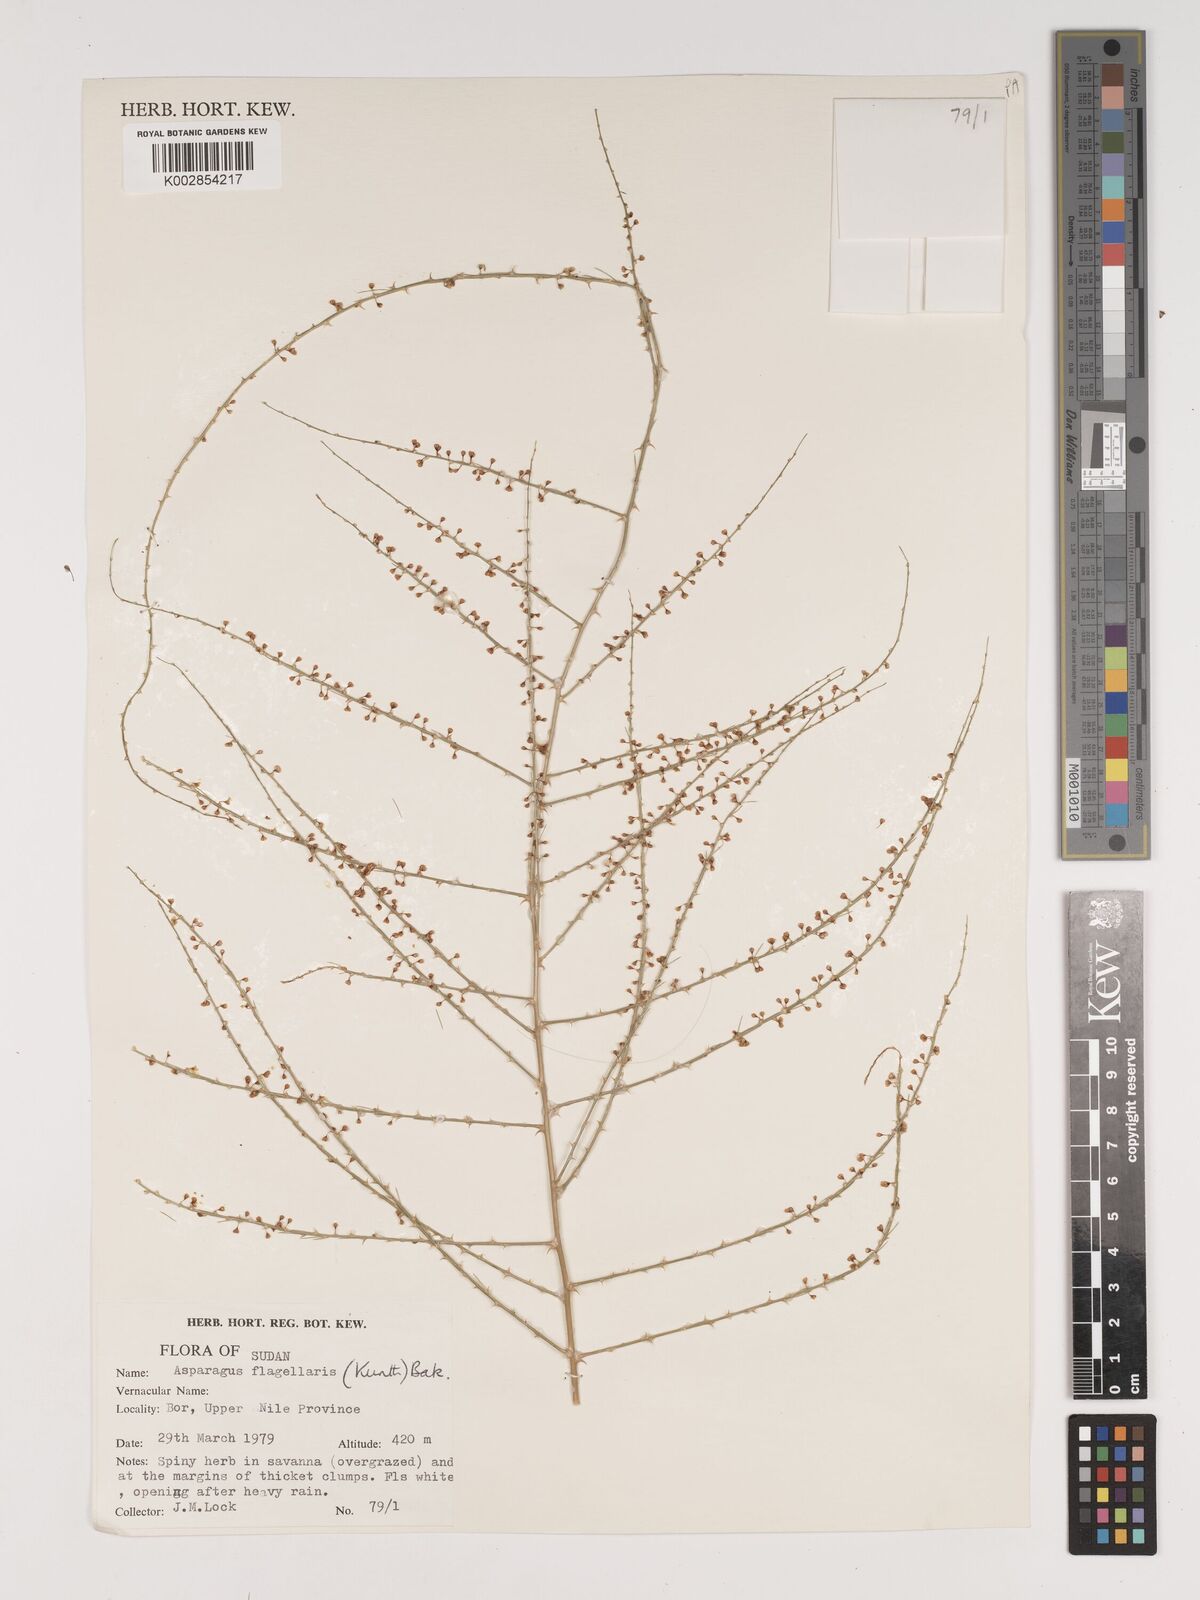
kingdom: Plantae
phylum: Tracheophyta
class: Liliopsida
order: Asparagales
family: Asparagaceae
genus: Asparagus
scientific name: Asparagus flagellaris
